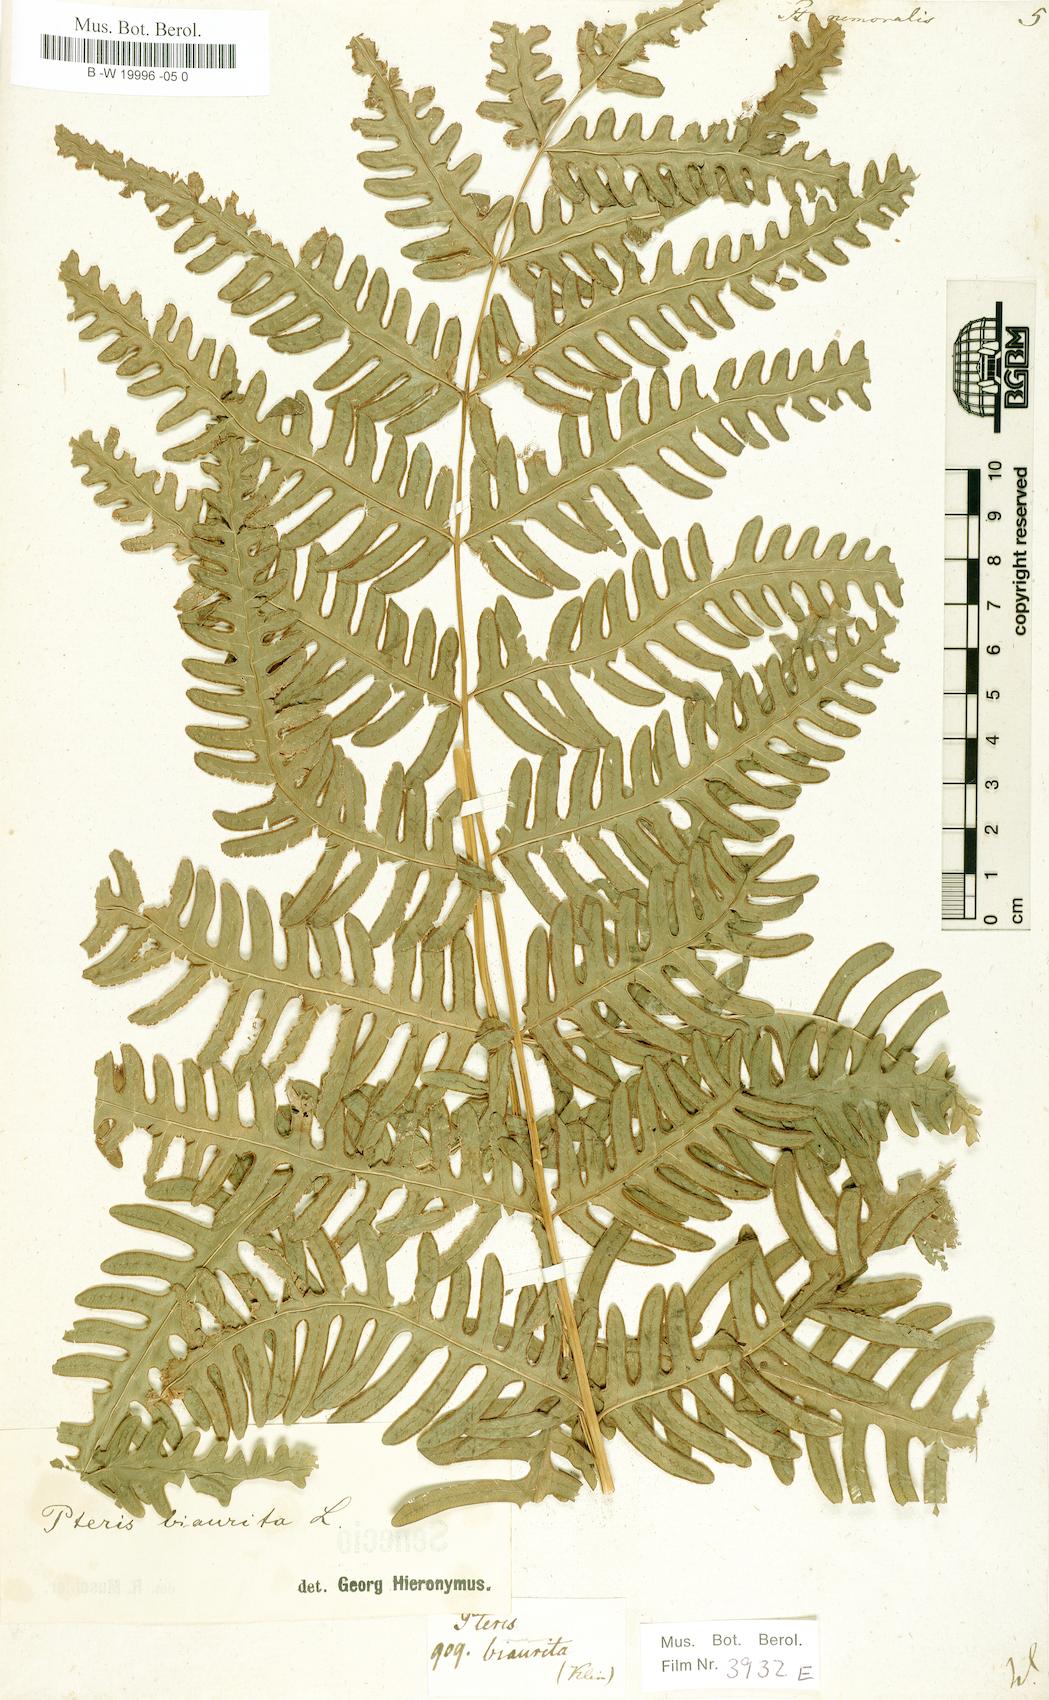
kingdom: Plantae
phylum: Tracheophyta
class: Polypodiopsida
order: Polypodiales
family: Pteridaceae
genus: Pteris
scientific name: Pteris linearis
